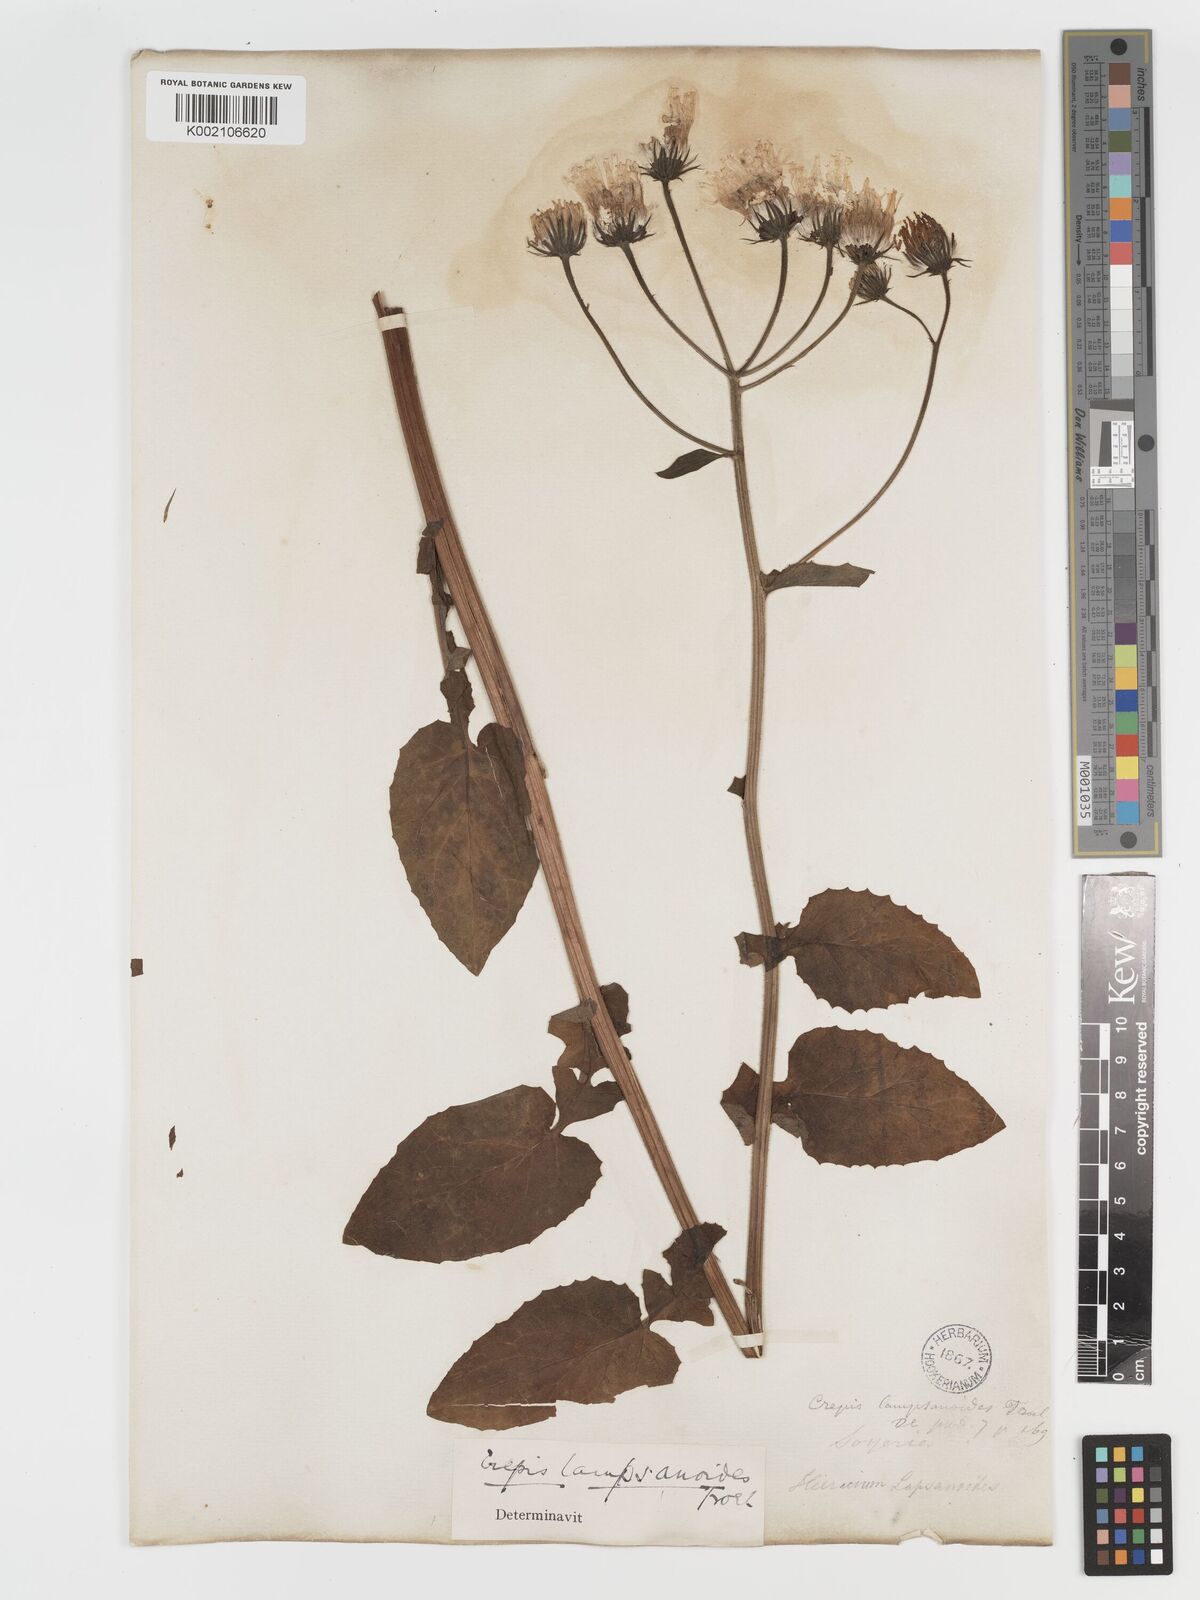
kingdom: Plantae
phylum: Tracheophyta
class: Magnoliopsida
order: Asterales
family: Asteraceae
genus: Crepis
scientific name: Crepis lampsanoides
